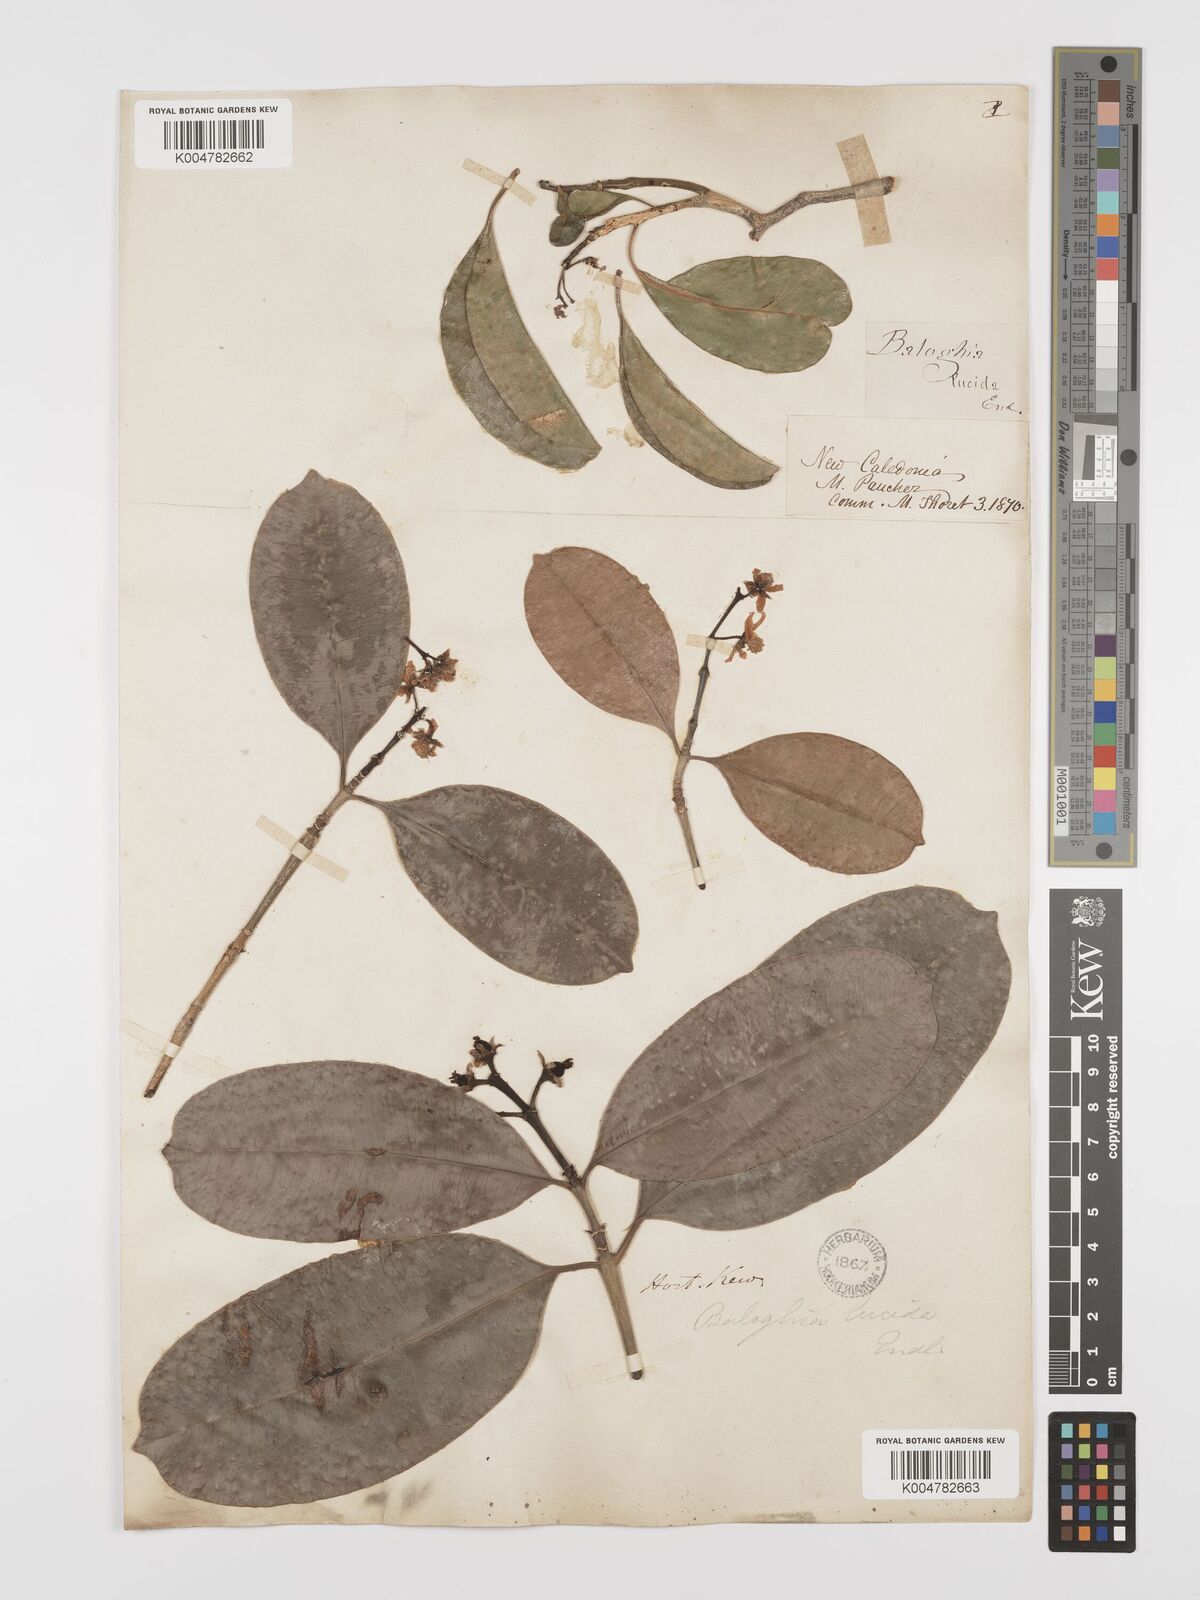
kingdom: Plantae
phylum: Tracheophyta
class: Magnoliopsida
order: Malpighiales
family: Euphorbiaceae
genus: Baloghia
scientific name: Baloghia inophylla
